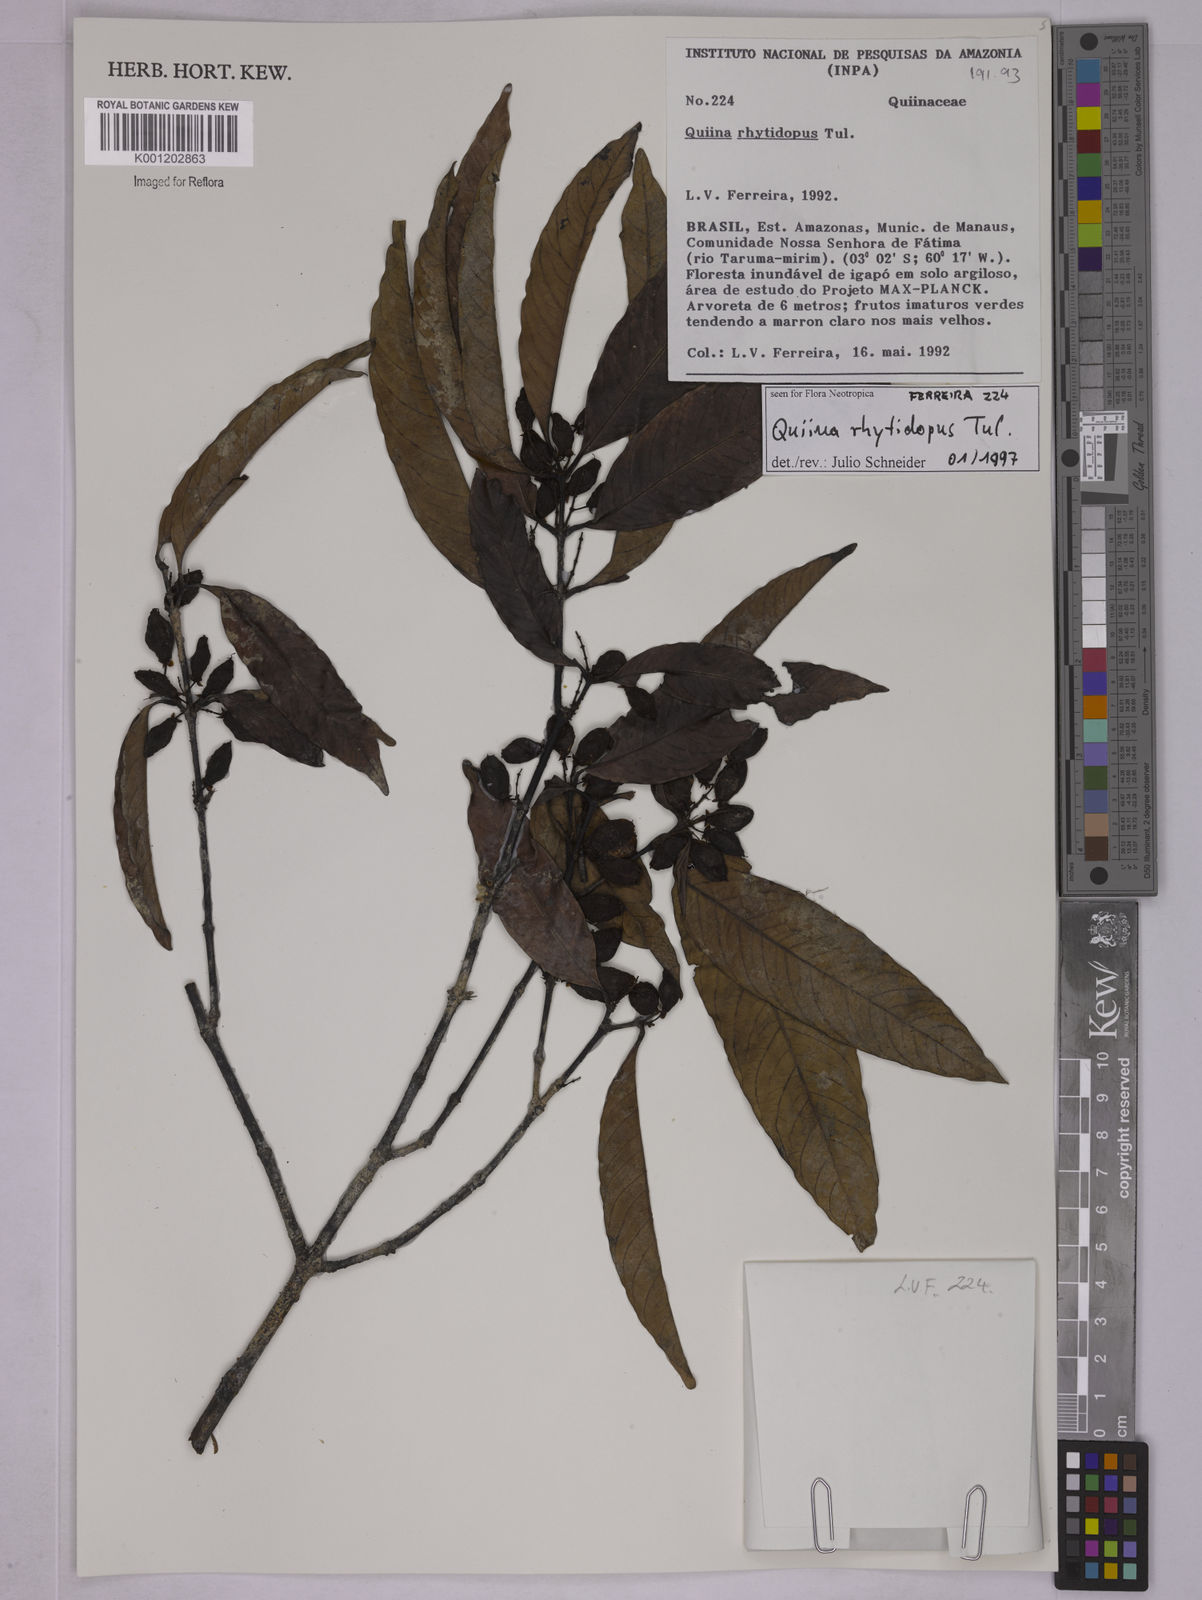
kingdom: Plantae
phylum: Tracheophyta
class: Magnoliopsida
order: Malpighiales
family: Quiinaceae
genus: Quiina
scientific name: Quiina rhytidopus
